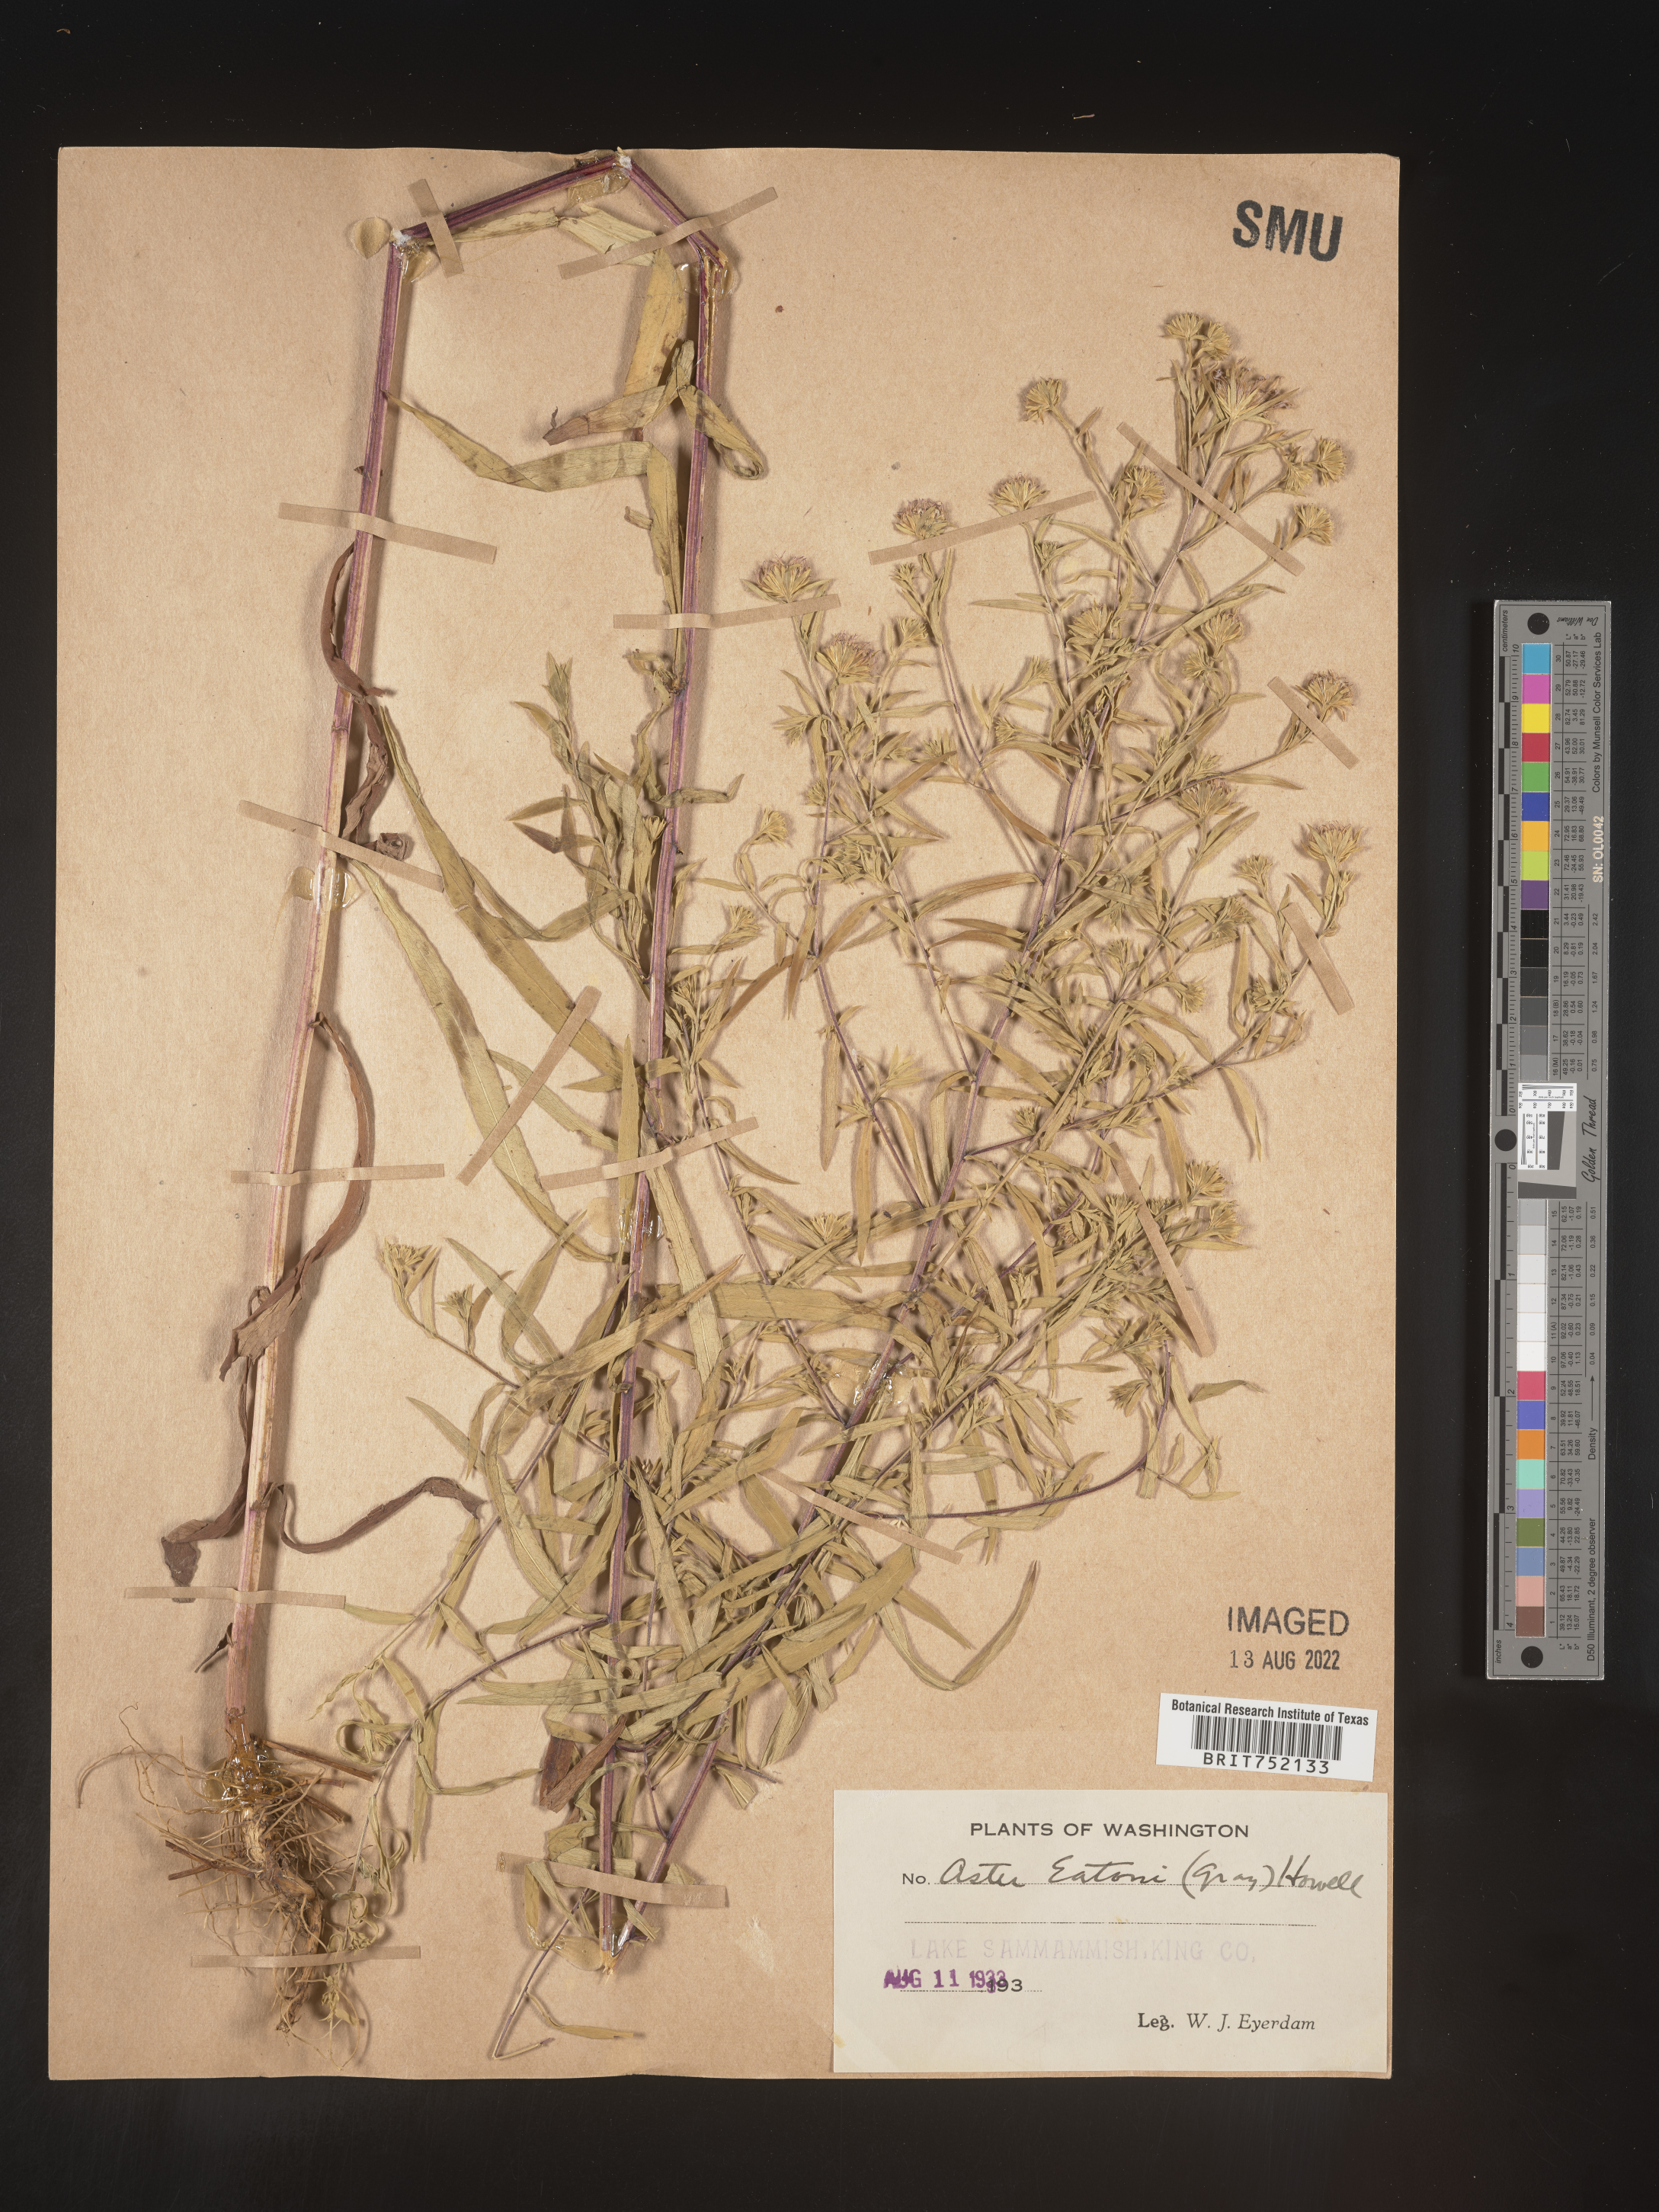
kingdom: Plantae
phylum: Tracheophyta
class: Magnoliopsida
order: Asterales
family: Asteraceae
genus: Symphyotrichum
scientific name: Symphyotrichum bracteolatum
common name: Eaton's aster
